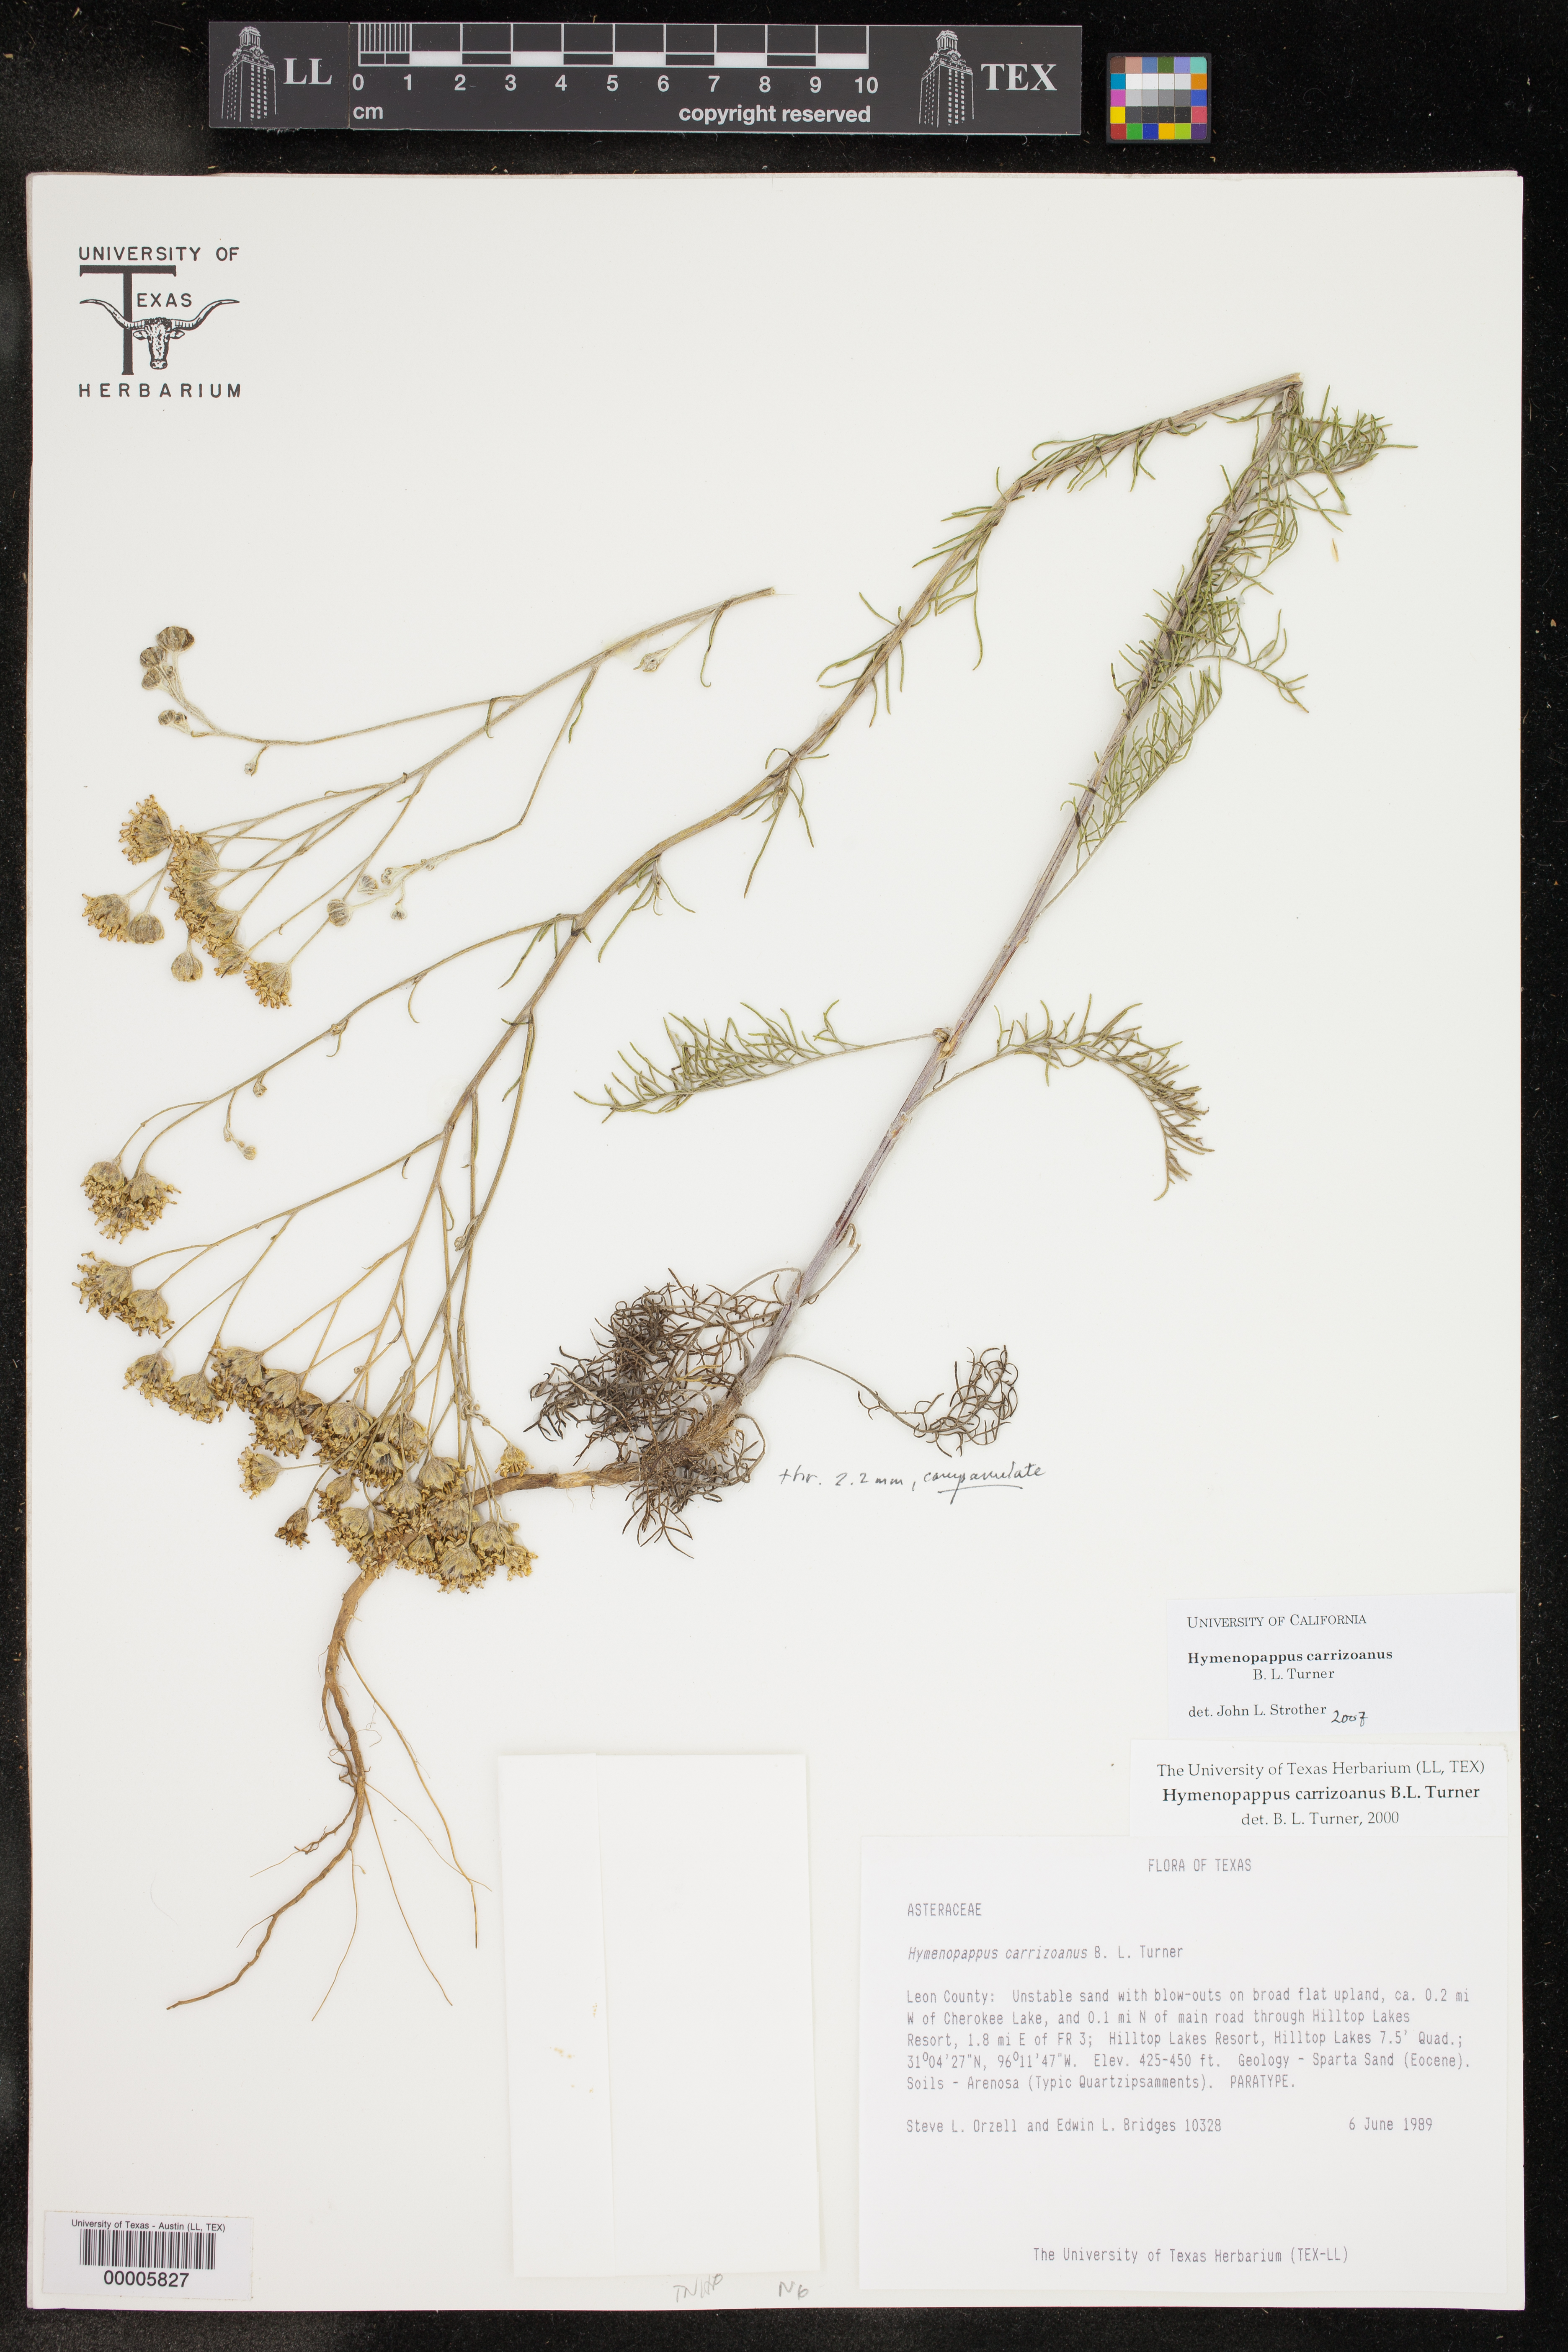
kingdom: Plantae
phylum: Tracheophyta
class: Magnoliopsida
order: Asterales
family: Asteraceae
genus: Hymenopappus
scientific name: Hymenopappus carrizoanus
